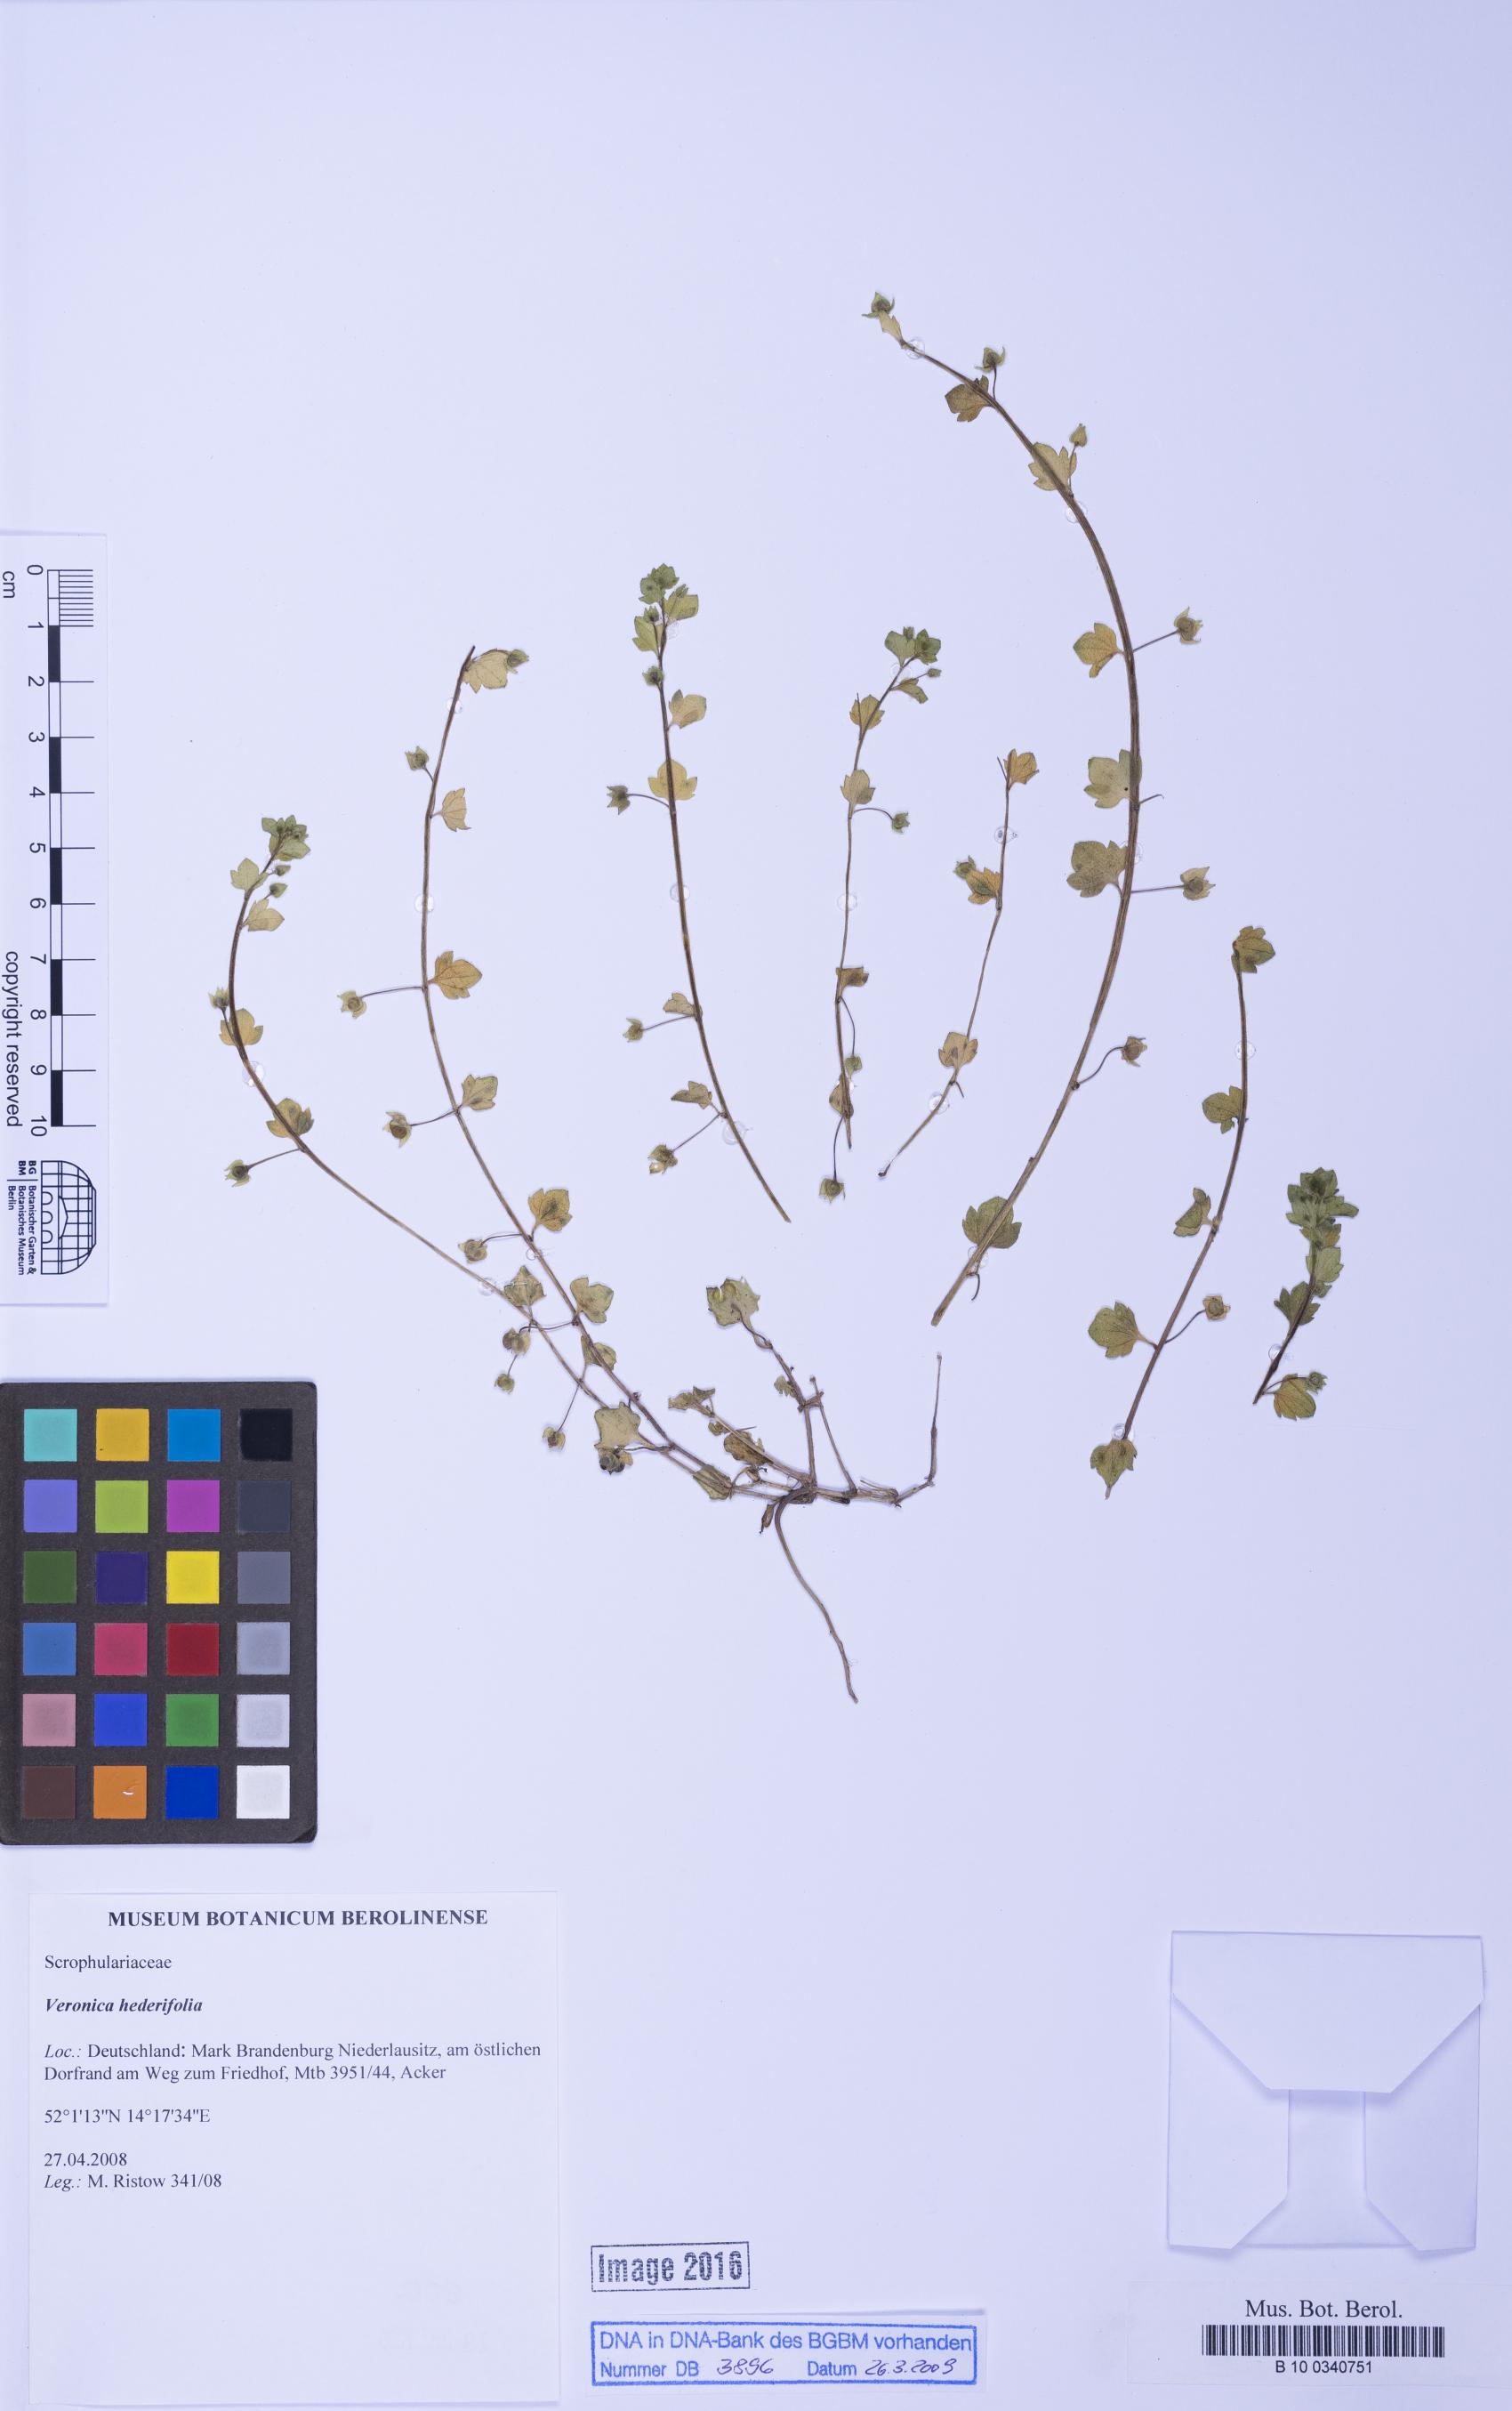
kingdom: Plantae
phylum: Tracheophyta
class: Magnoliopsida
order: Lamiales
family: Plantaginaceae
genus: Veronica
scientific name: Veronica hederifolia
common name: Ivy-leaved speedwell
